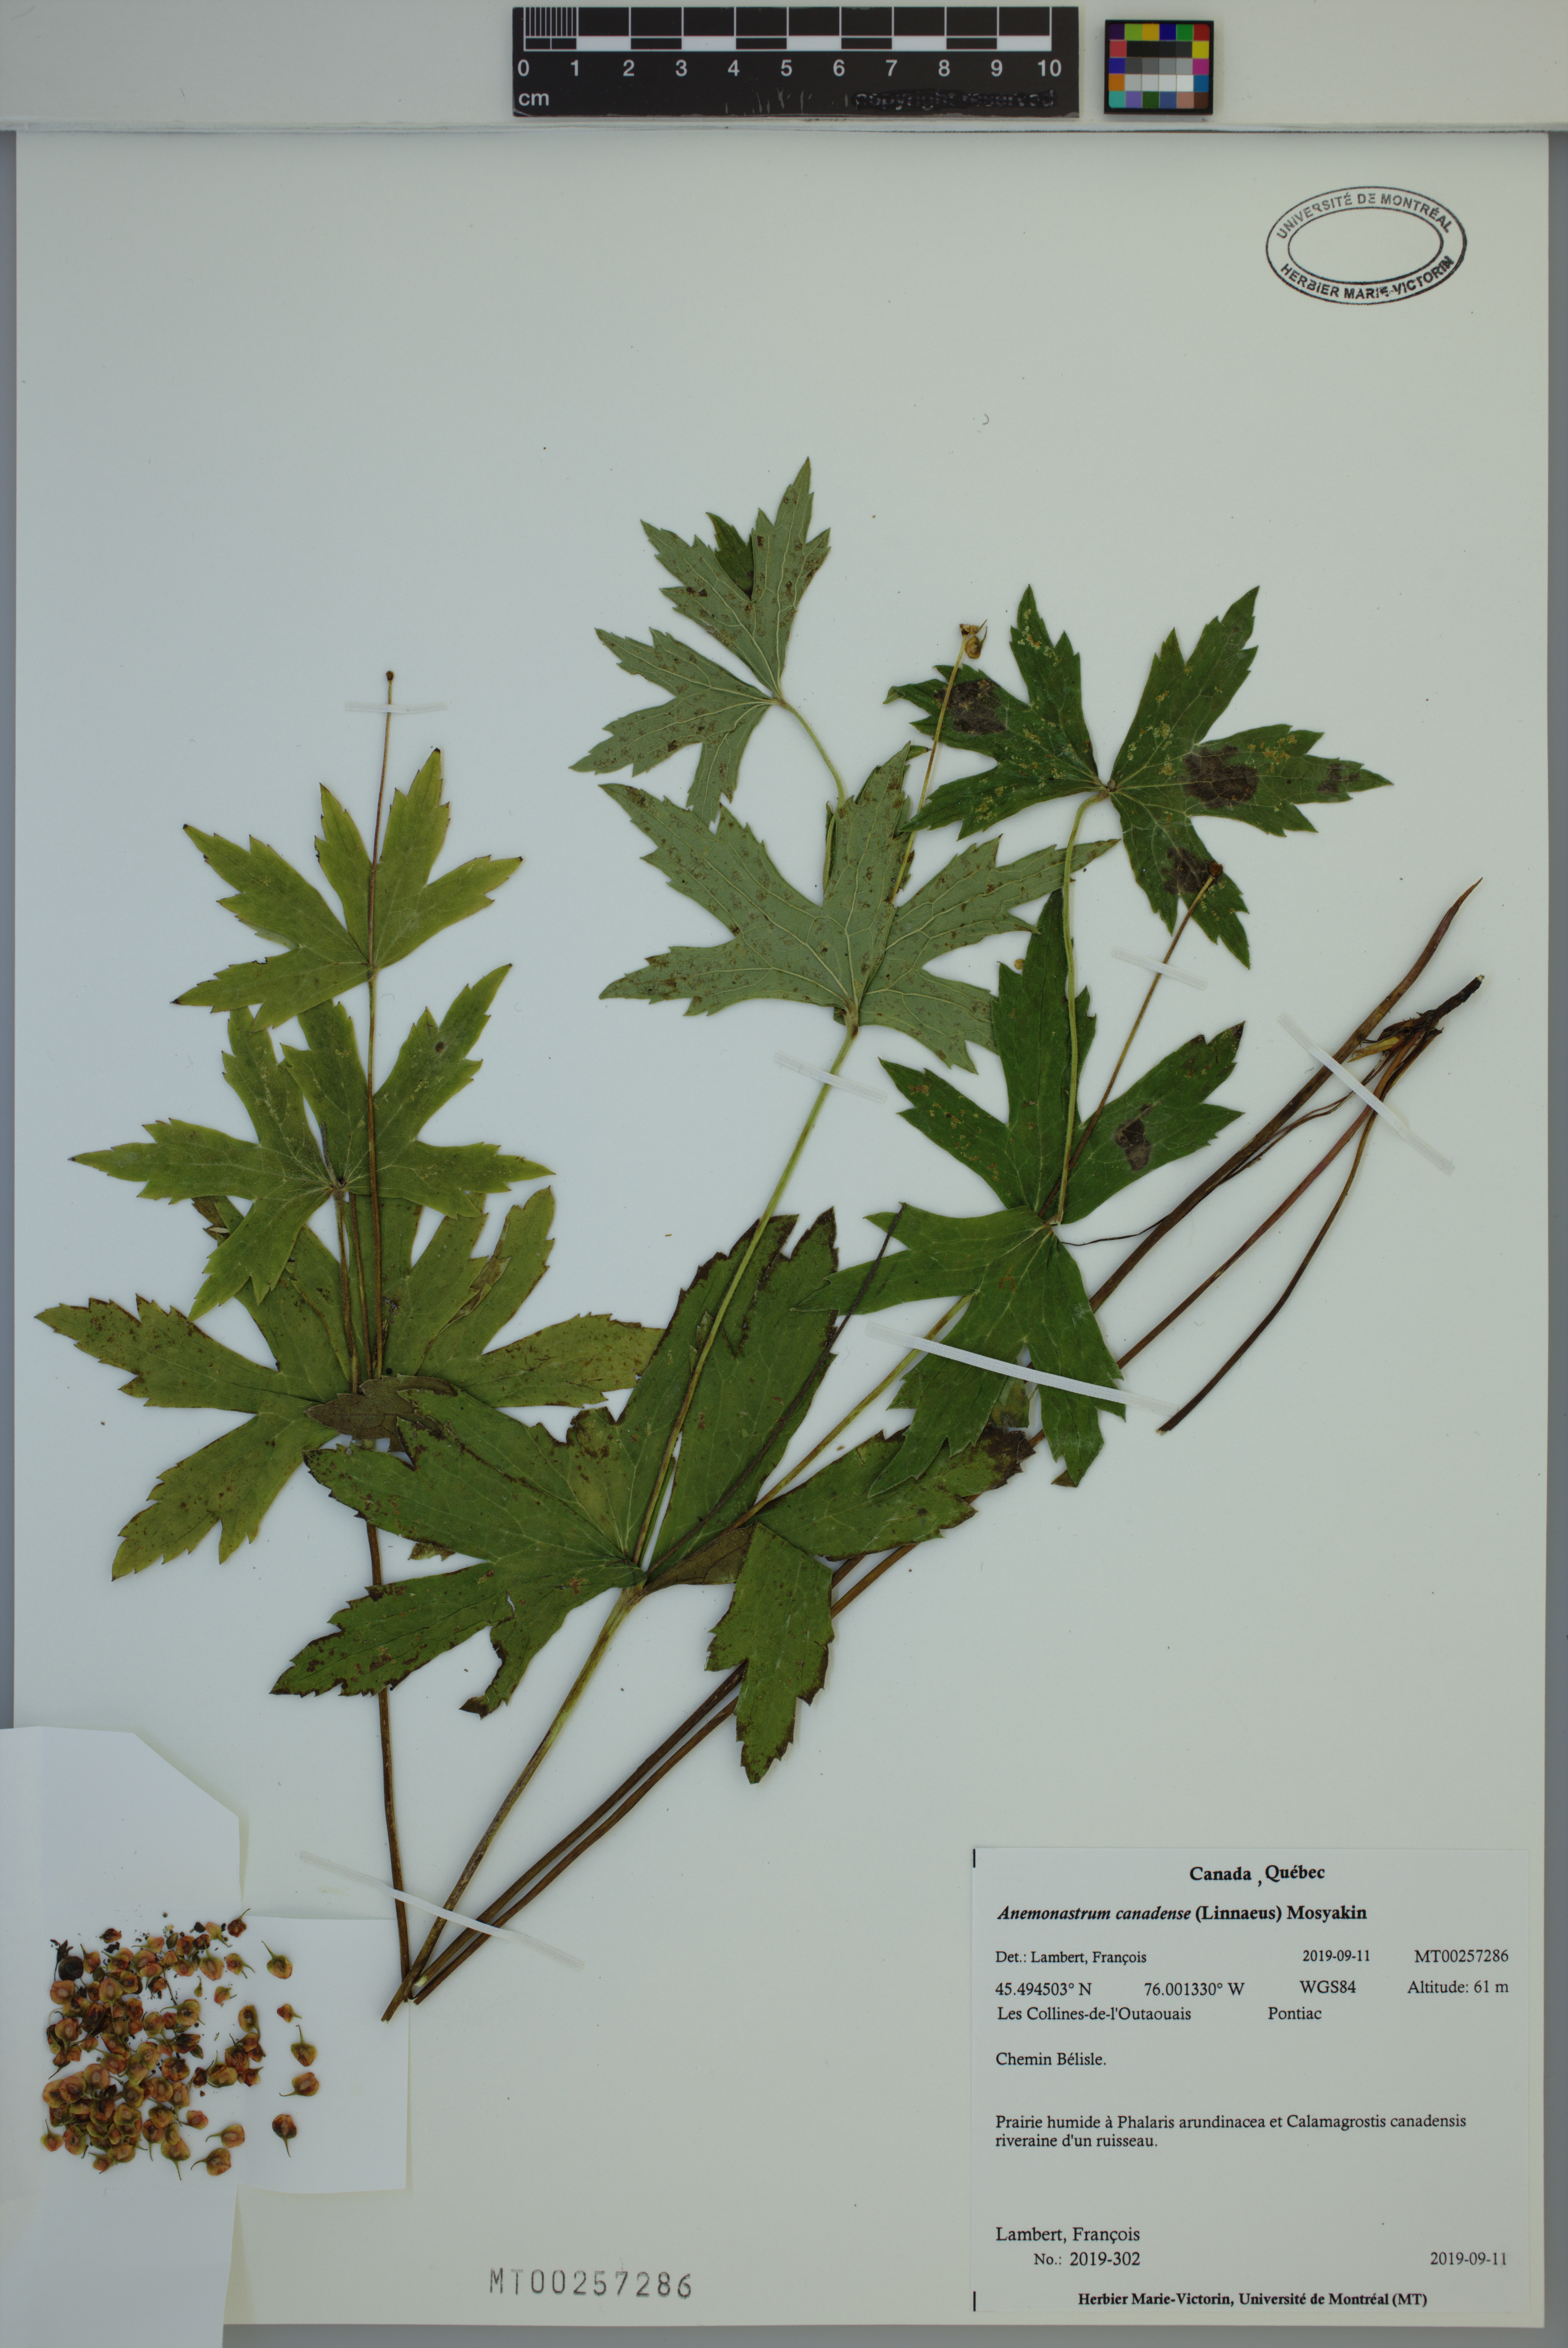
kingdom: Plantae
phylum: Tracheophyta
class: Magnoliopsida
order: Ranunculales
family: Ranunculaceae
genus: Anemonastrum
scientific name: Anemonastrum canadense
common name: Canada anemone
